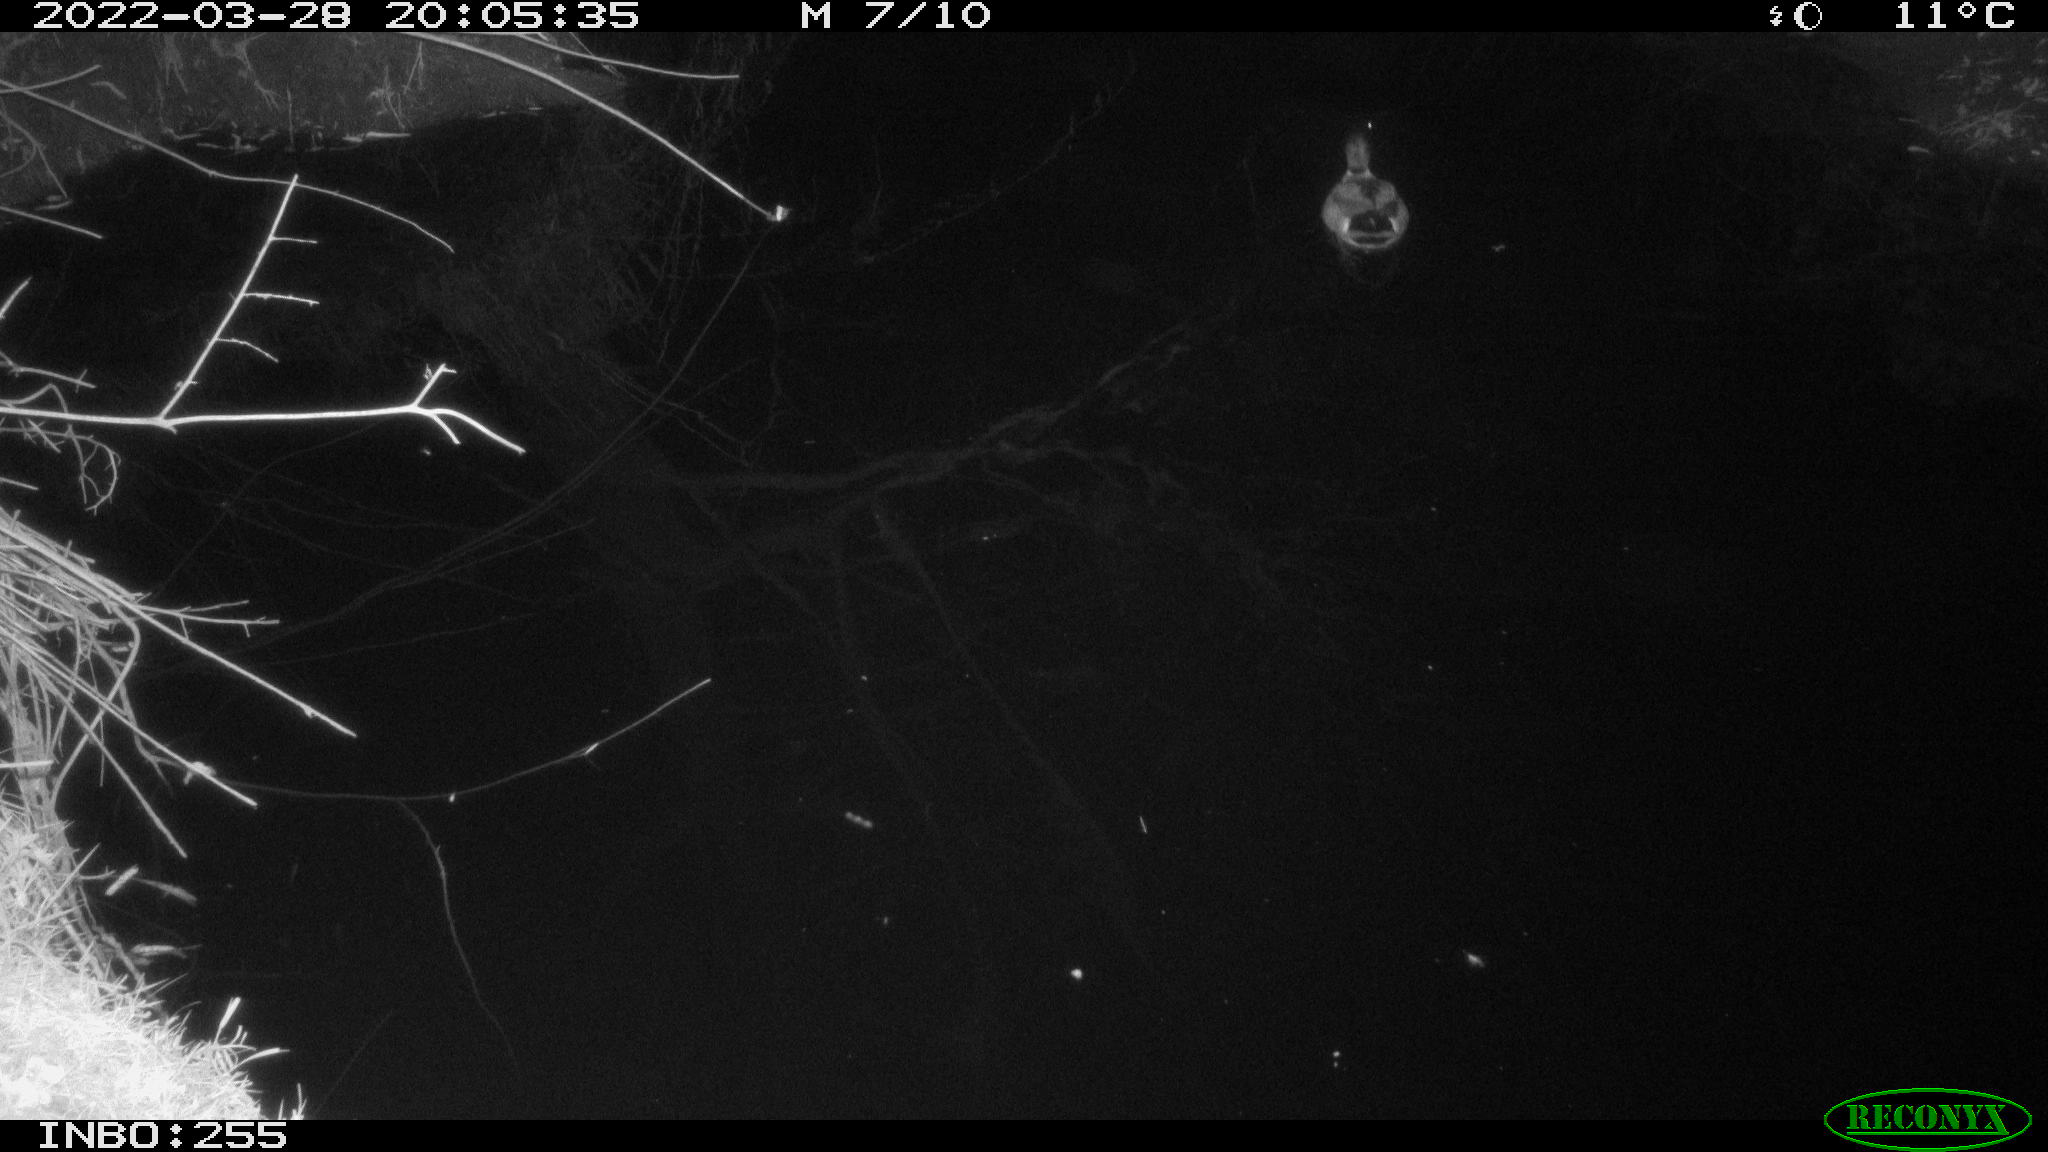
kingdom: Animalia
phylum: Chordata
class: Aves
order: Anseriformes
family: Anatidae
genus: Anas
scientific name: Anas platyrhynchos
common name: Mallard
